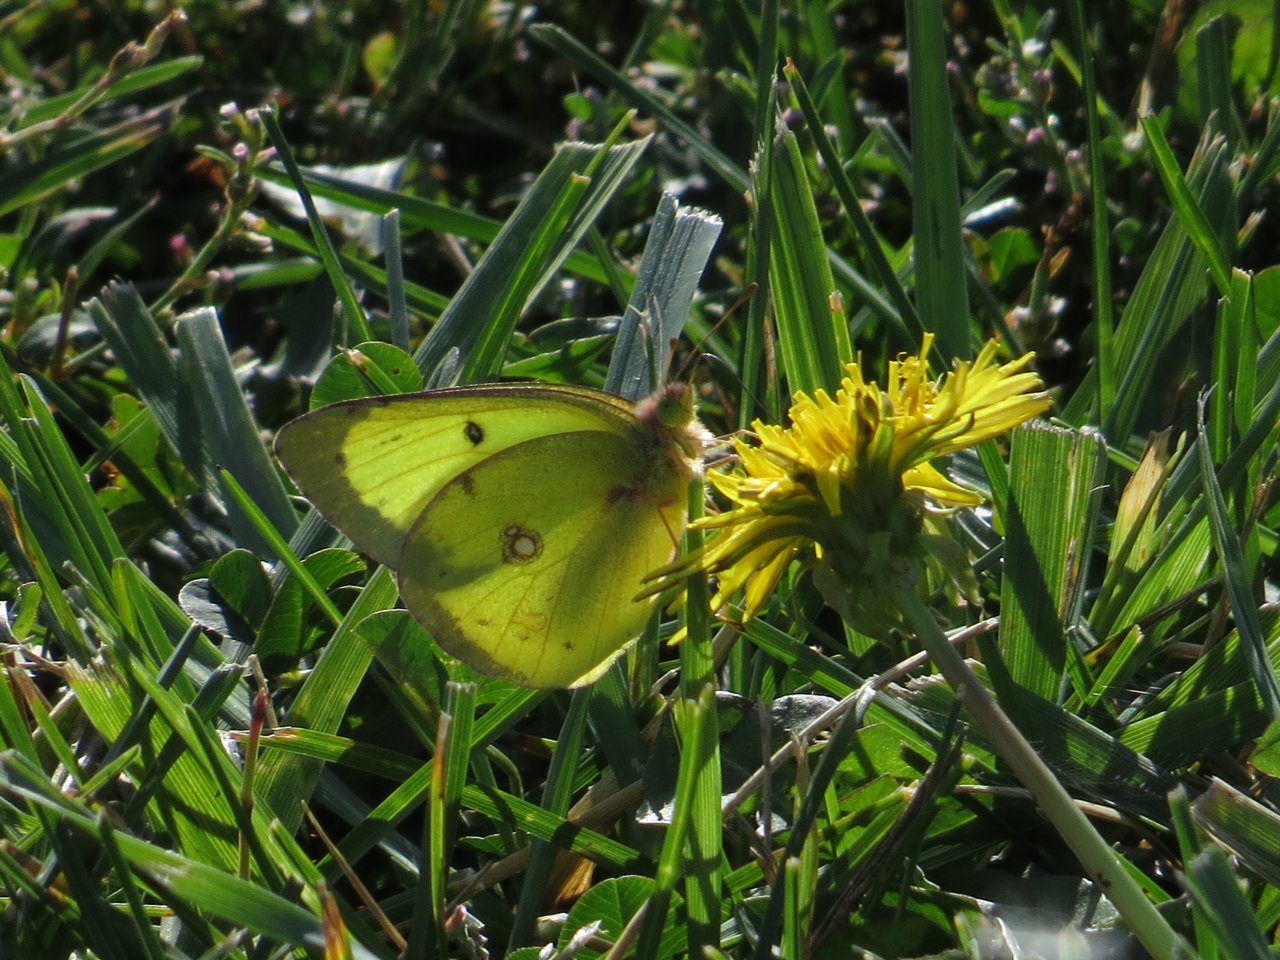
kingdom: Animalia
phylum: Arthropoda
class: Insecta
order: Lepidoptera
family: Pieridae
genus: Colias
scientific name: Colias philodice
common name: Clouded Sulphur
